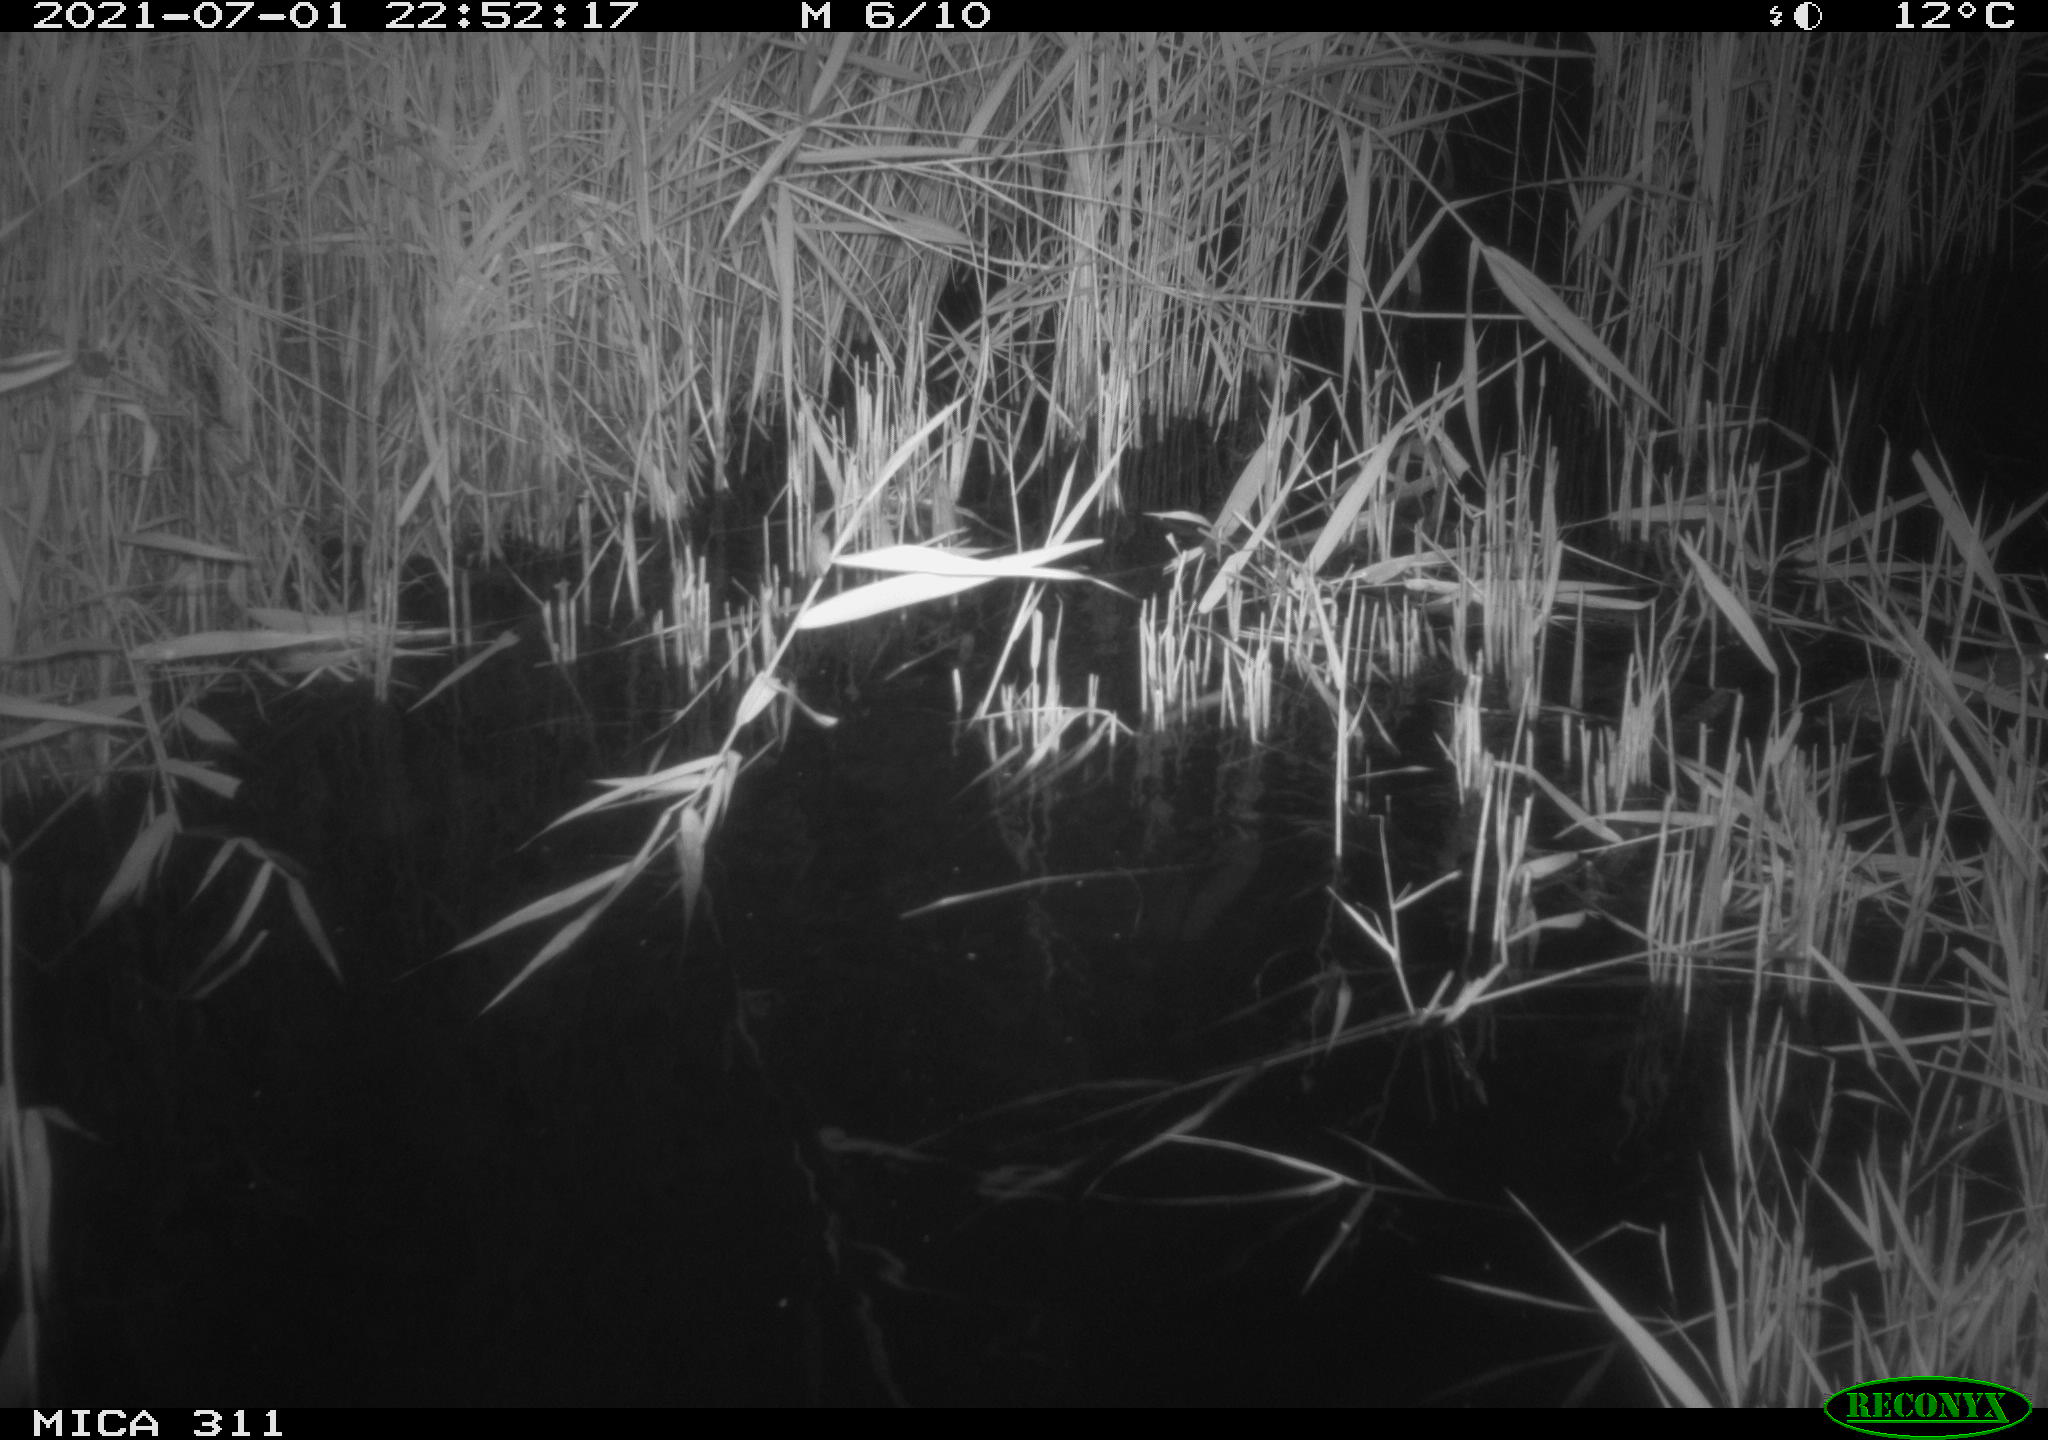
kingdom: Animalia
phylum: Chordata
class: Mammalia
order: Rodentia
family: Muridae
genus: Rattus
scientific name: Rattus norvegicus
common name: Brown rat
